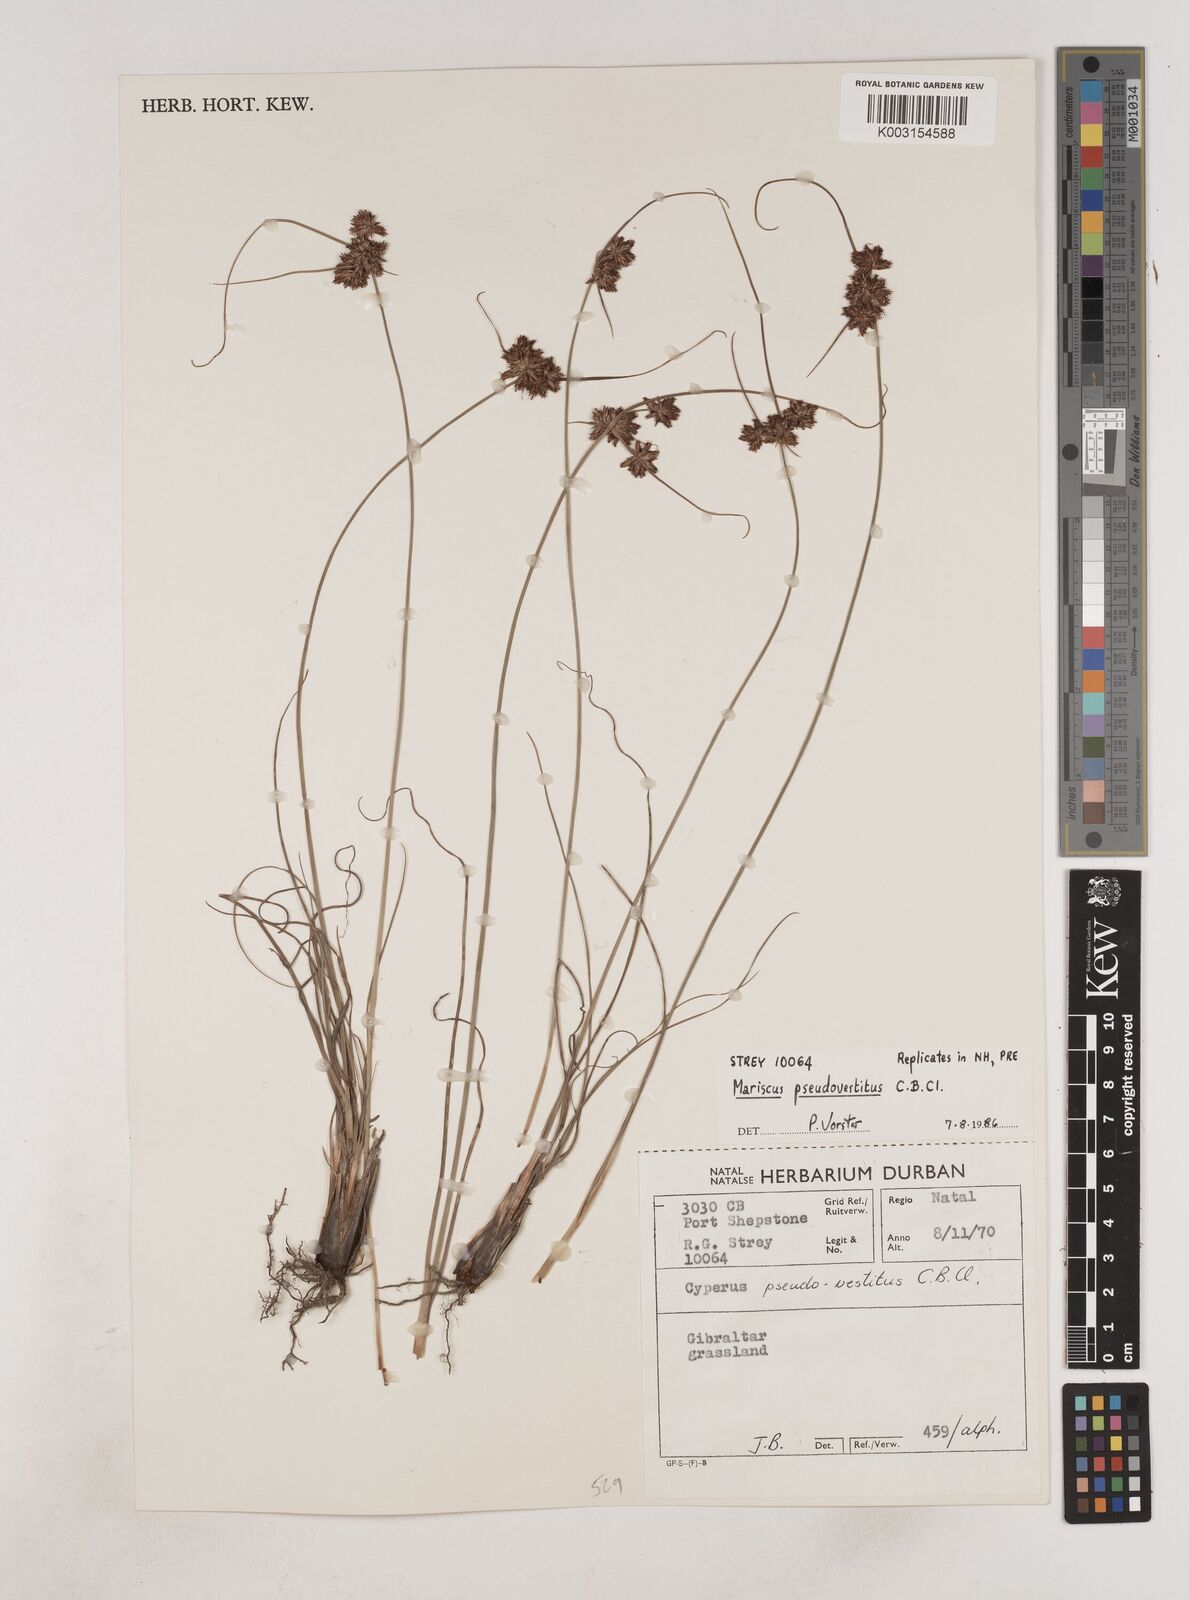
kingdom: Plantae
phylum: Tracheophyta
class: Liliopsida
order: Poales
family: Cyperaceae
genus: Cyperus
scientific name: Cyperus pseudovestitus
